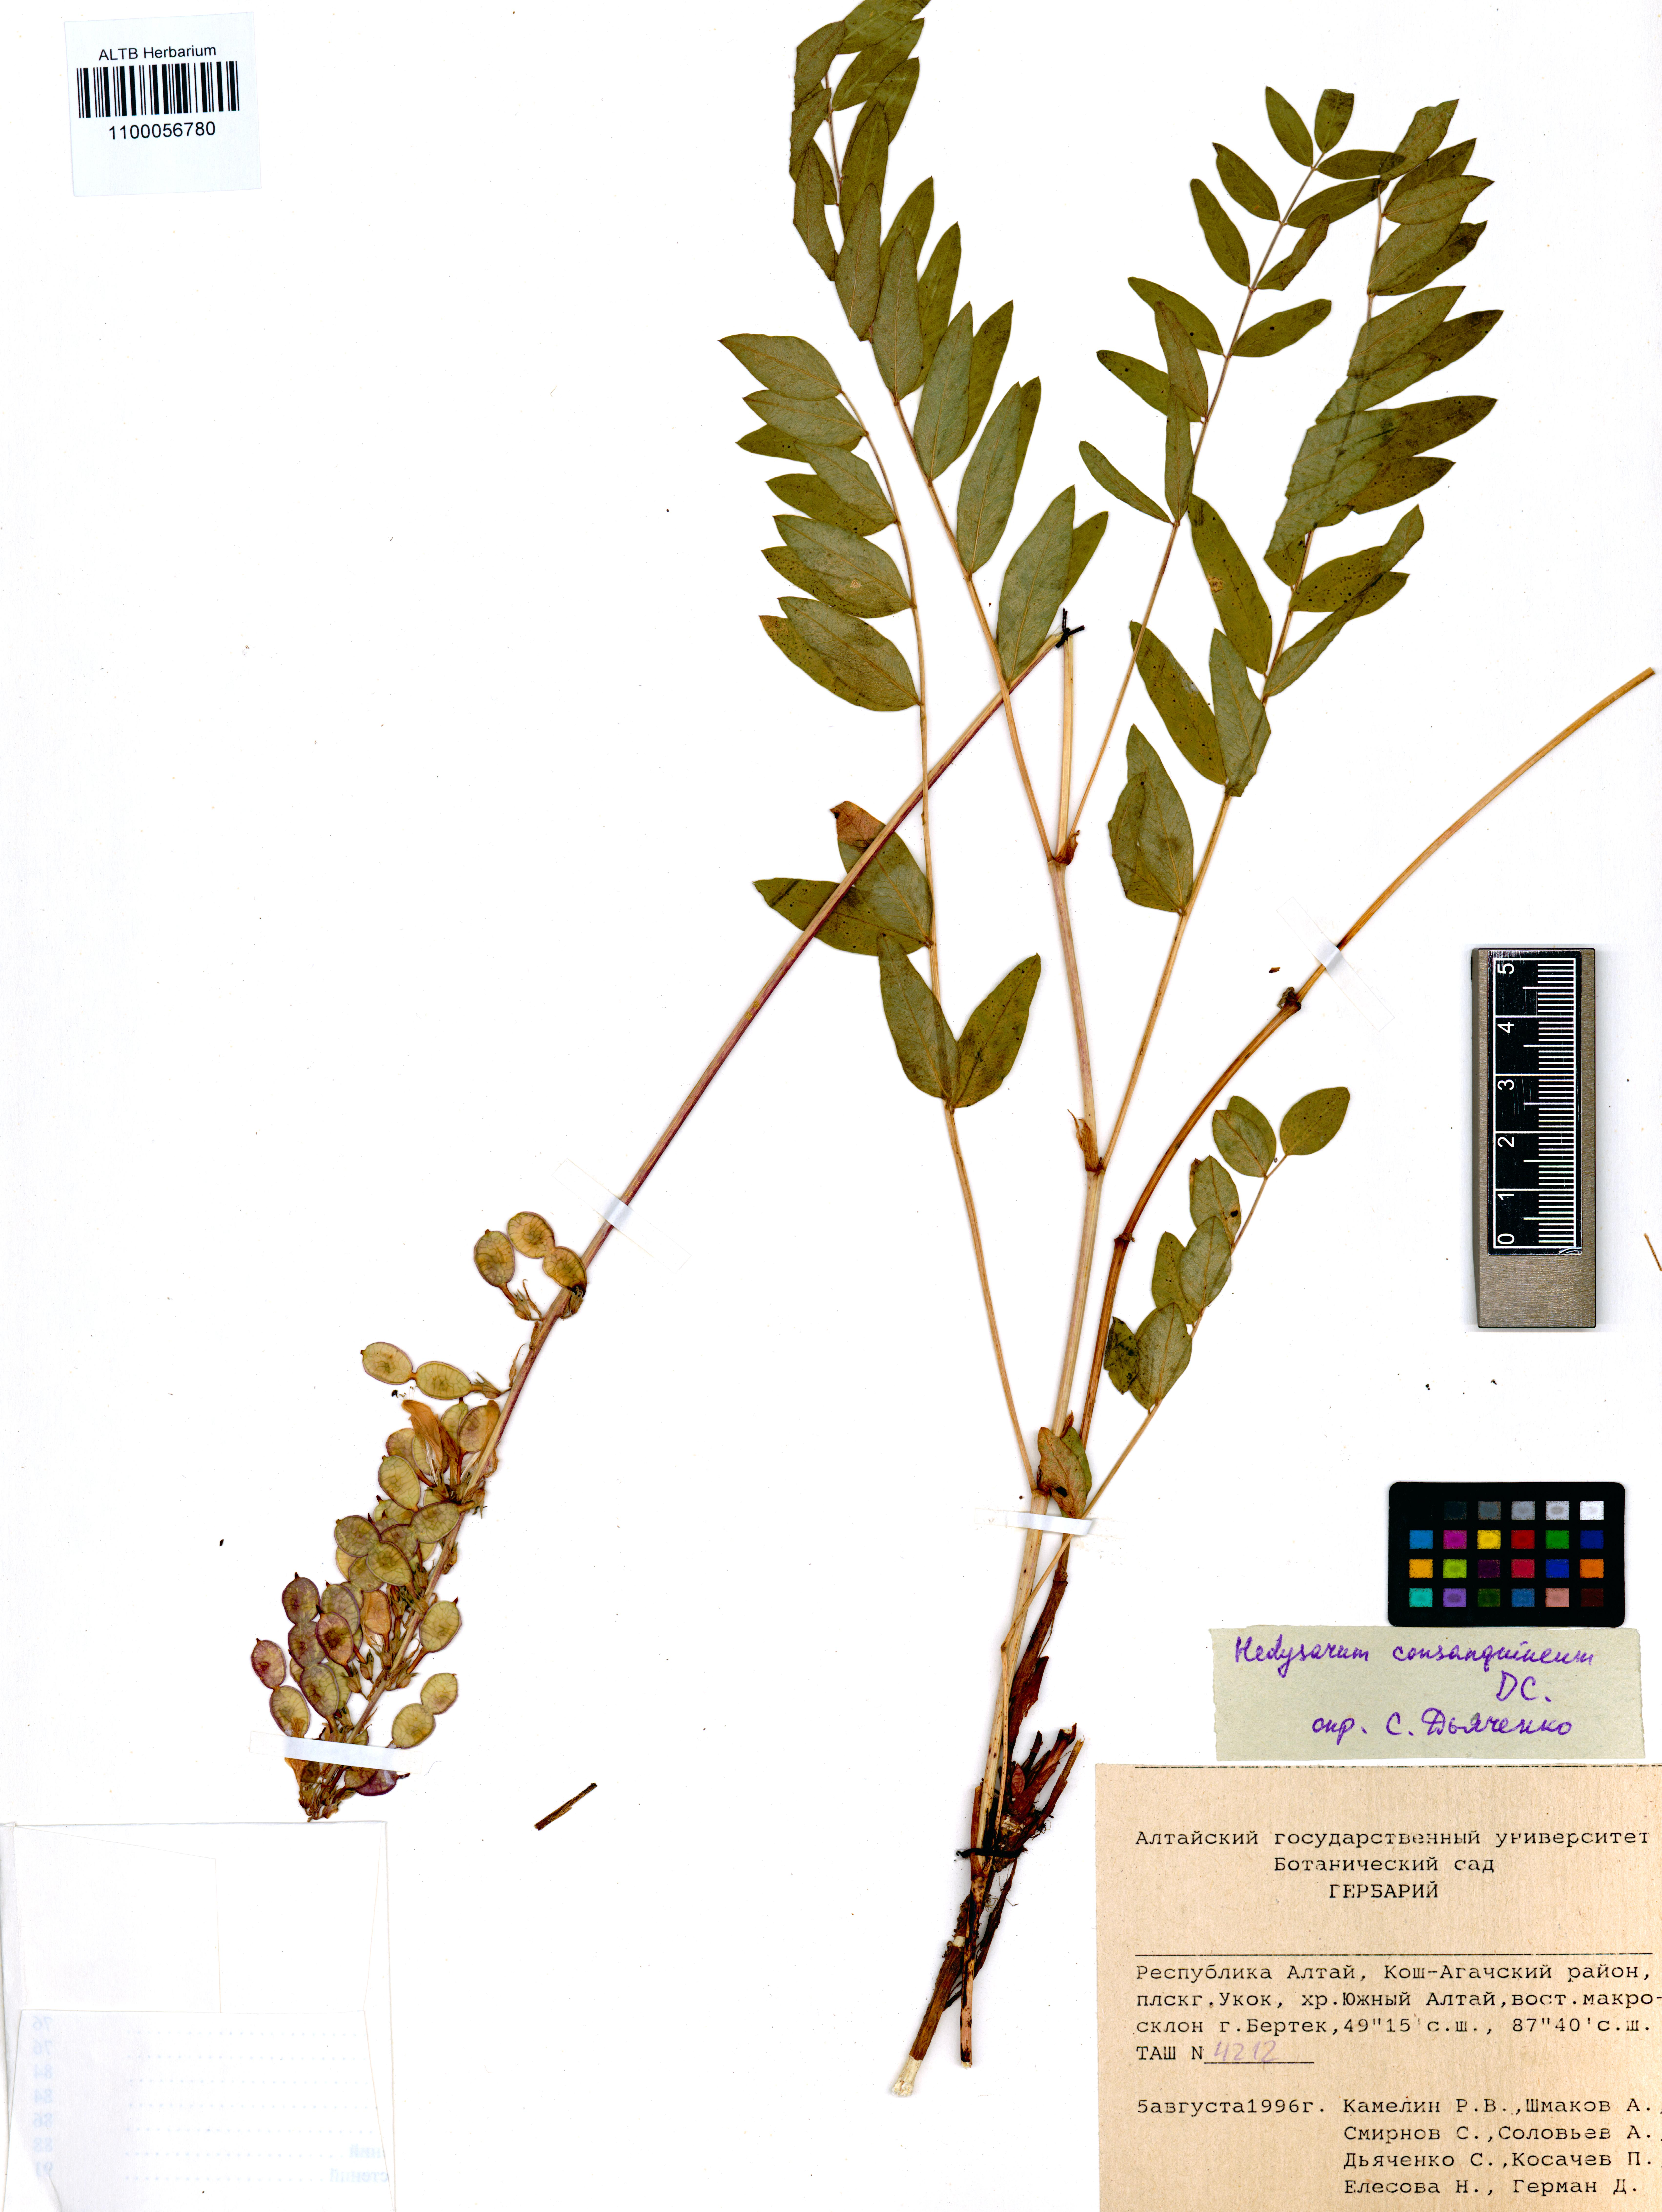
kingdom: Plantae
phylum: Tracheophyta
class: Magnoliopsida
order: Fabales
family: Fabaceae
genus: Hedysarum
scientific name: Hedysarum consanguineum
